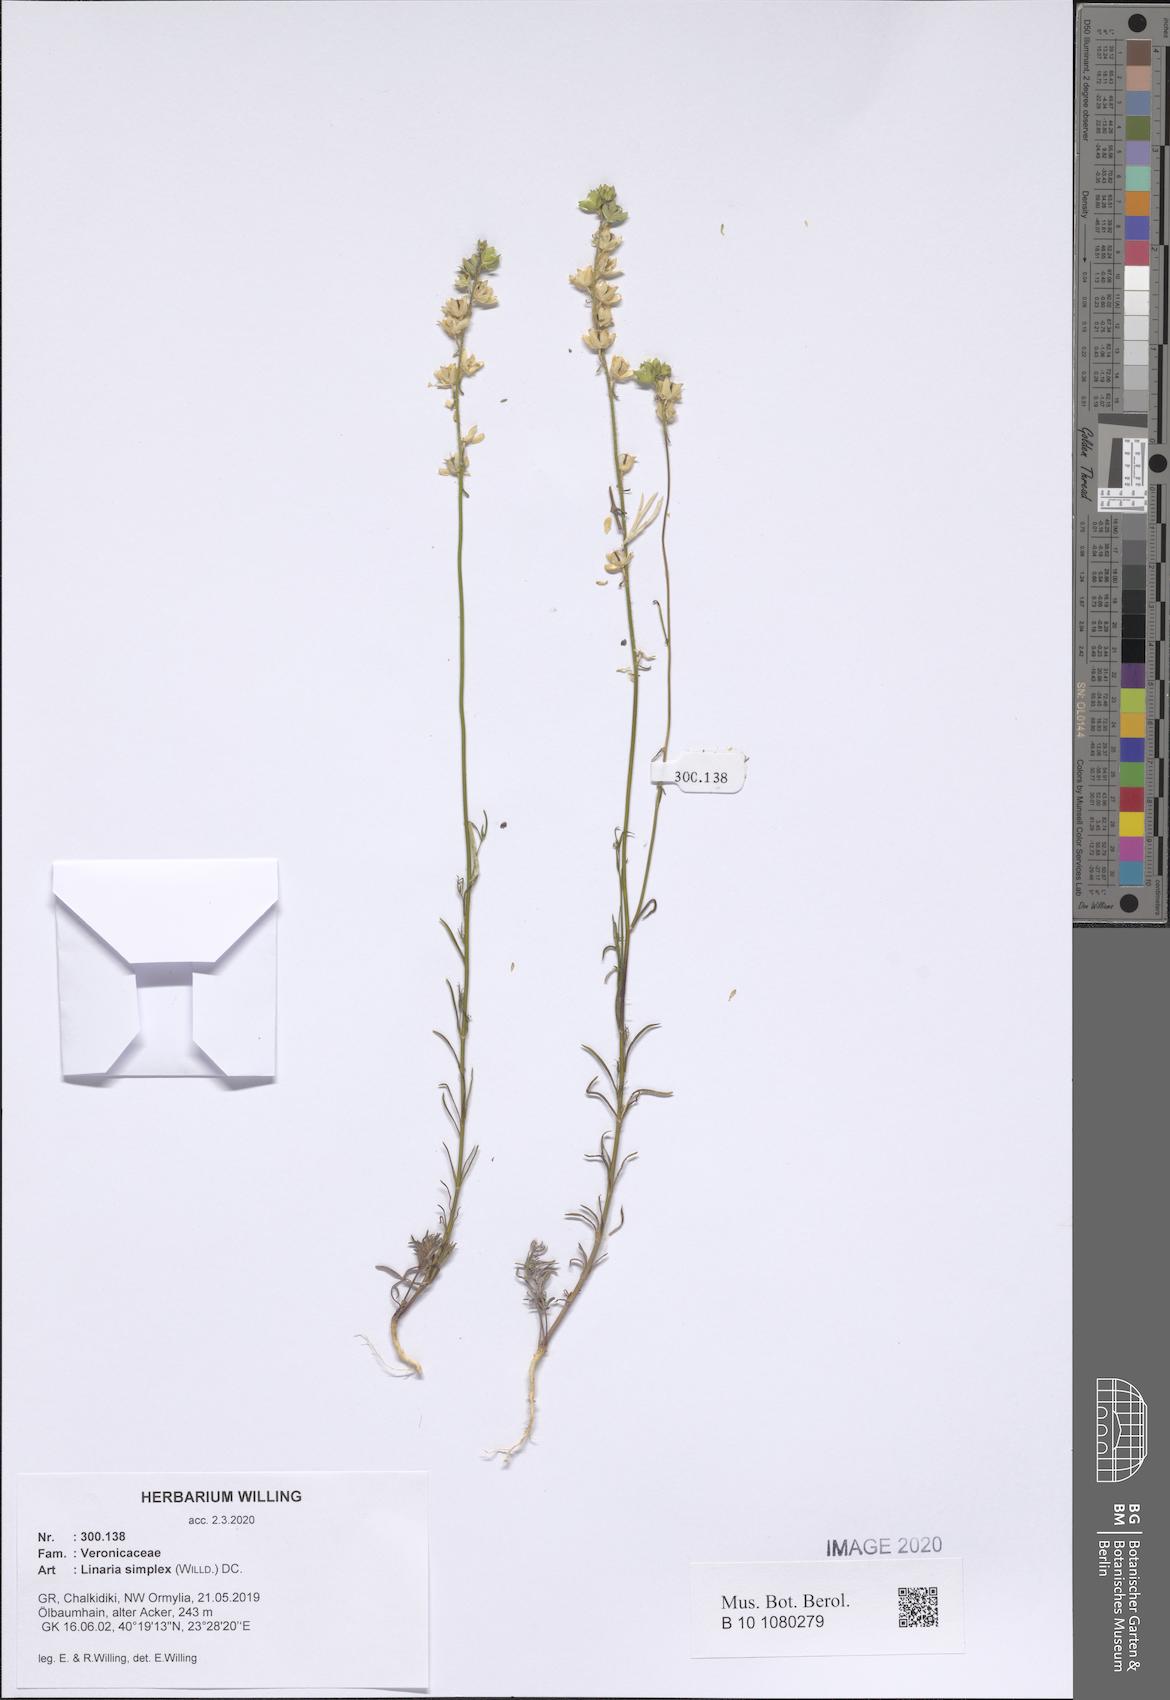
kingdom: Plantae
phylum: Tracheophyta
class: Magnoliopsida
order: Lamiales
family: Plantaginaceae
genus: Linaria
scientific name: Linaria simplex
